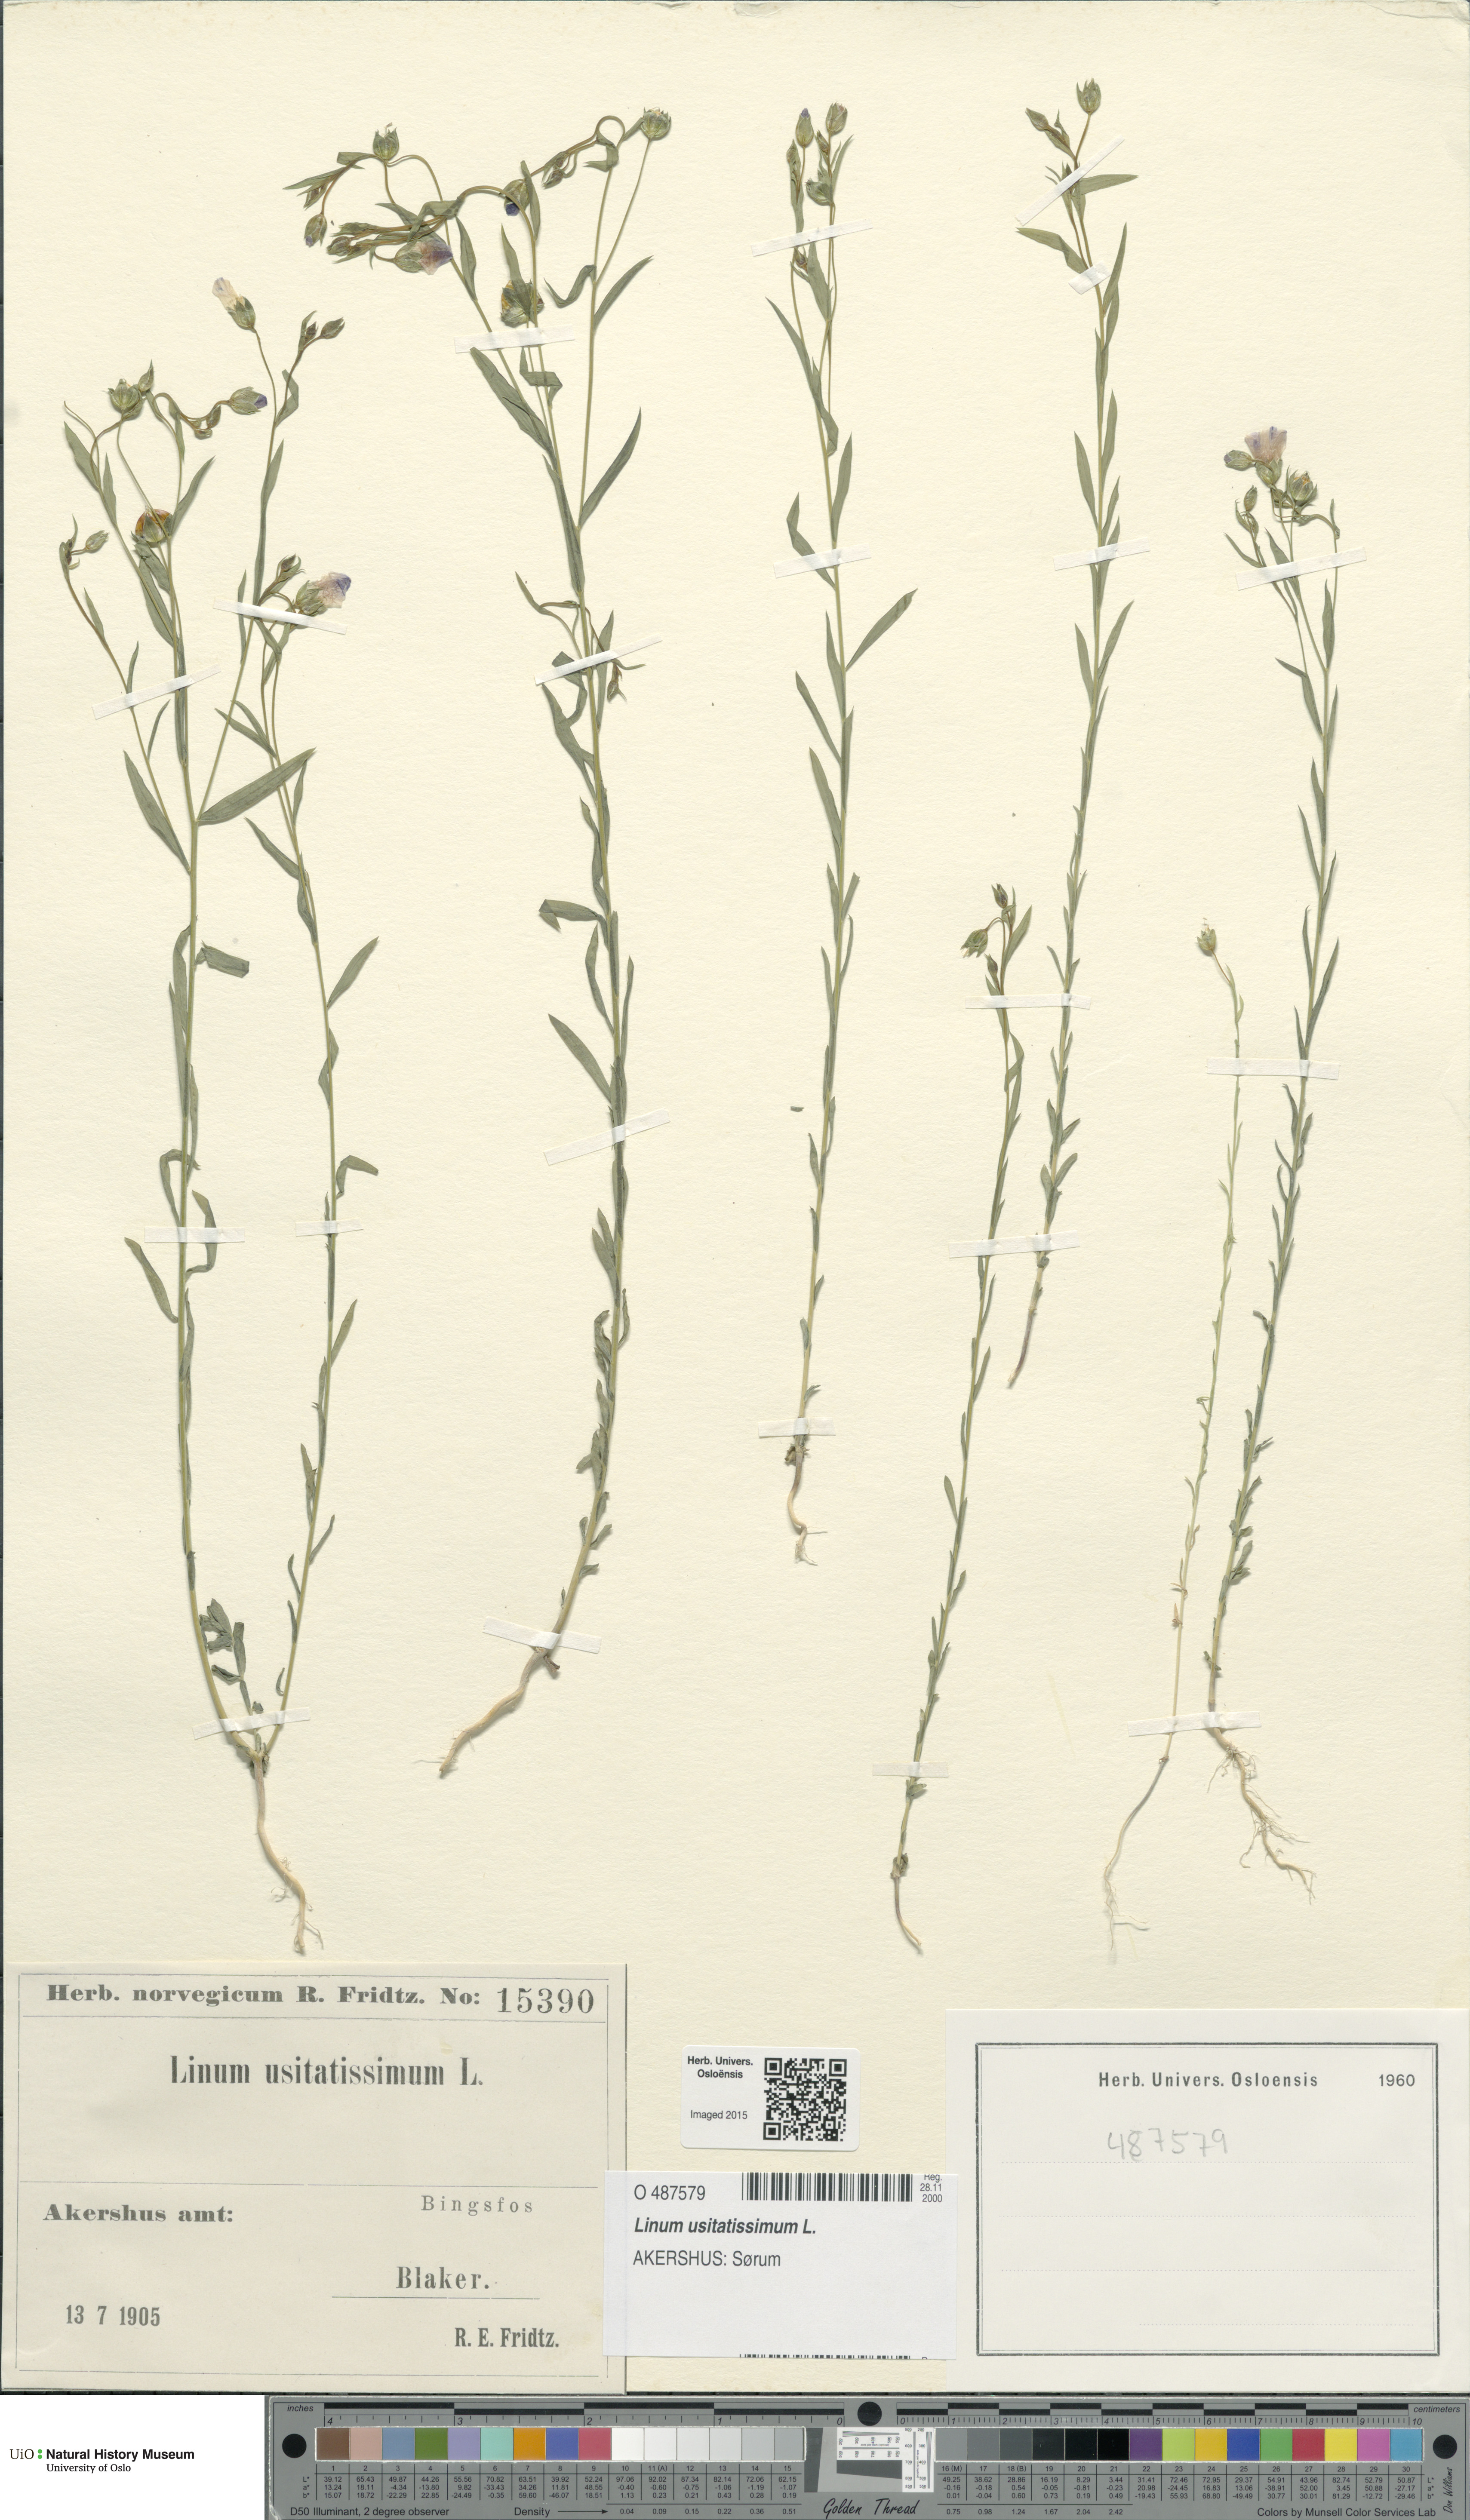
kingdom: Plantae
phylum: Tracheophyta
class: Magnoliopsida
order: Malpighiales
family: Linaceae
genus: Linum
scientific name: Linum usitatissimum
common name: Flax
